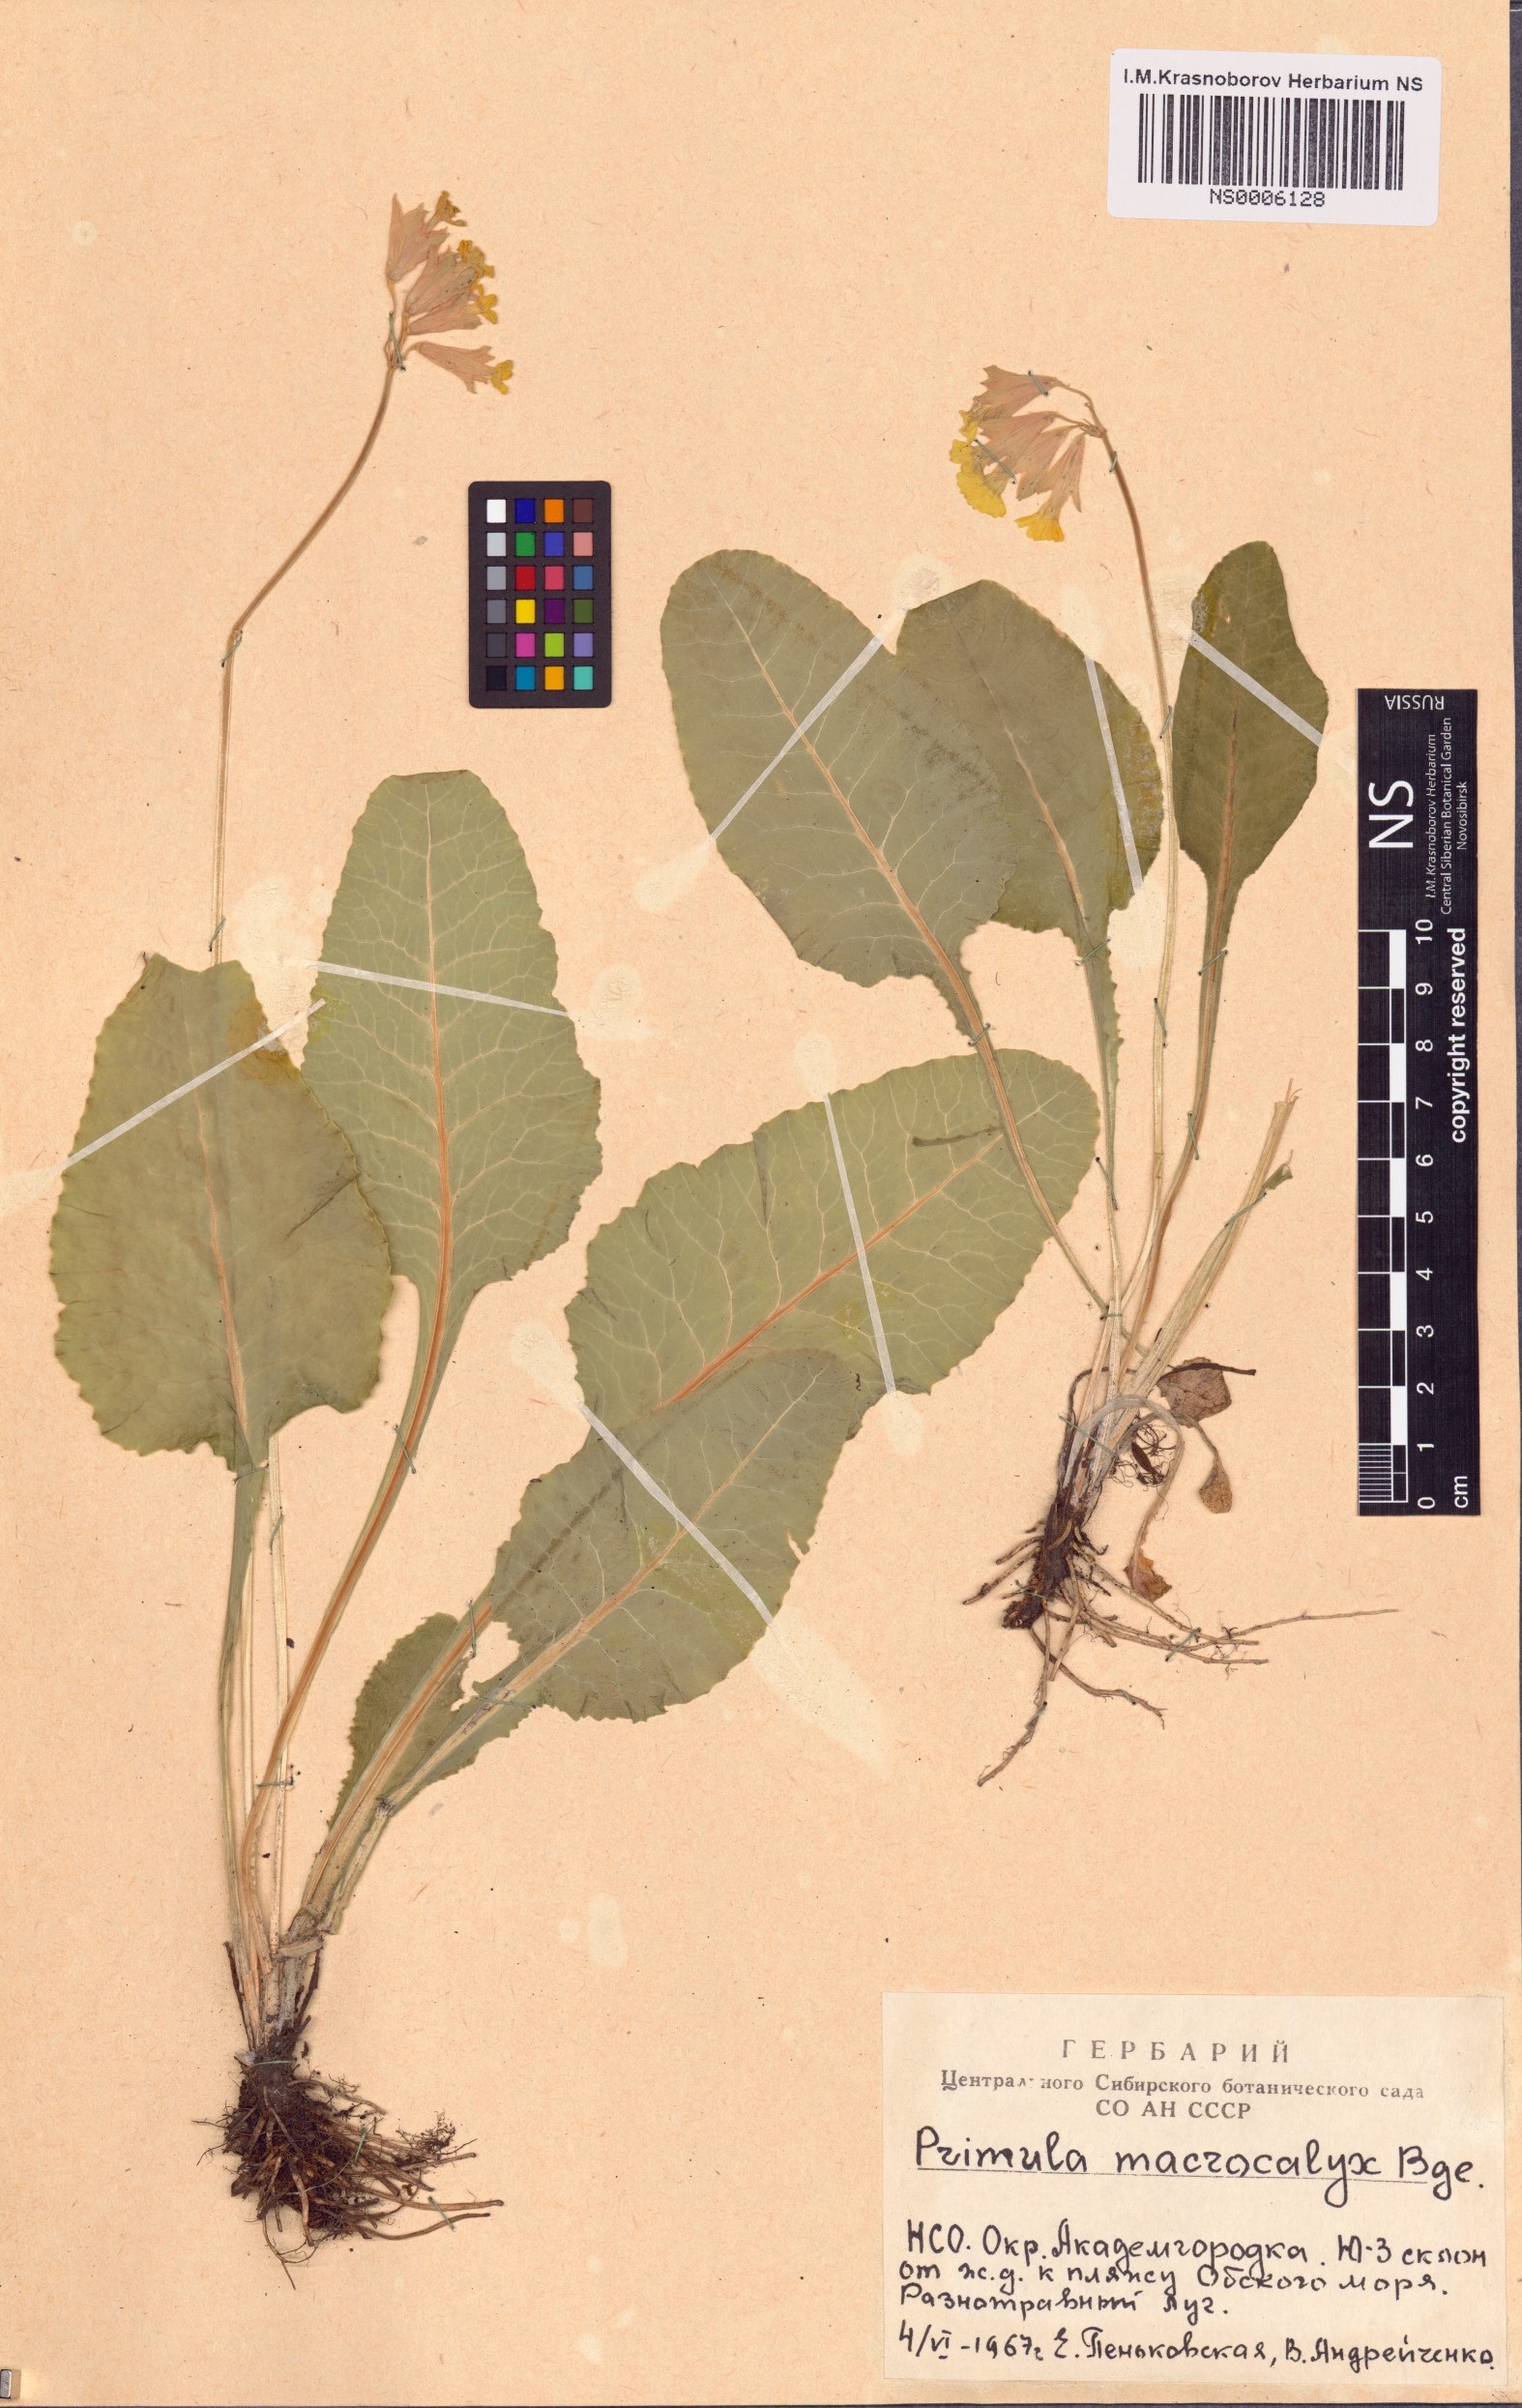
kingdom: Plantae
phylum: Tracheophyta
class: Magnoliopsida
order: Ericales
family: Primulaceae
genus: Primula
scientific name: Primula veris
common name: Cowslip
